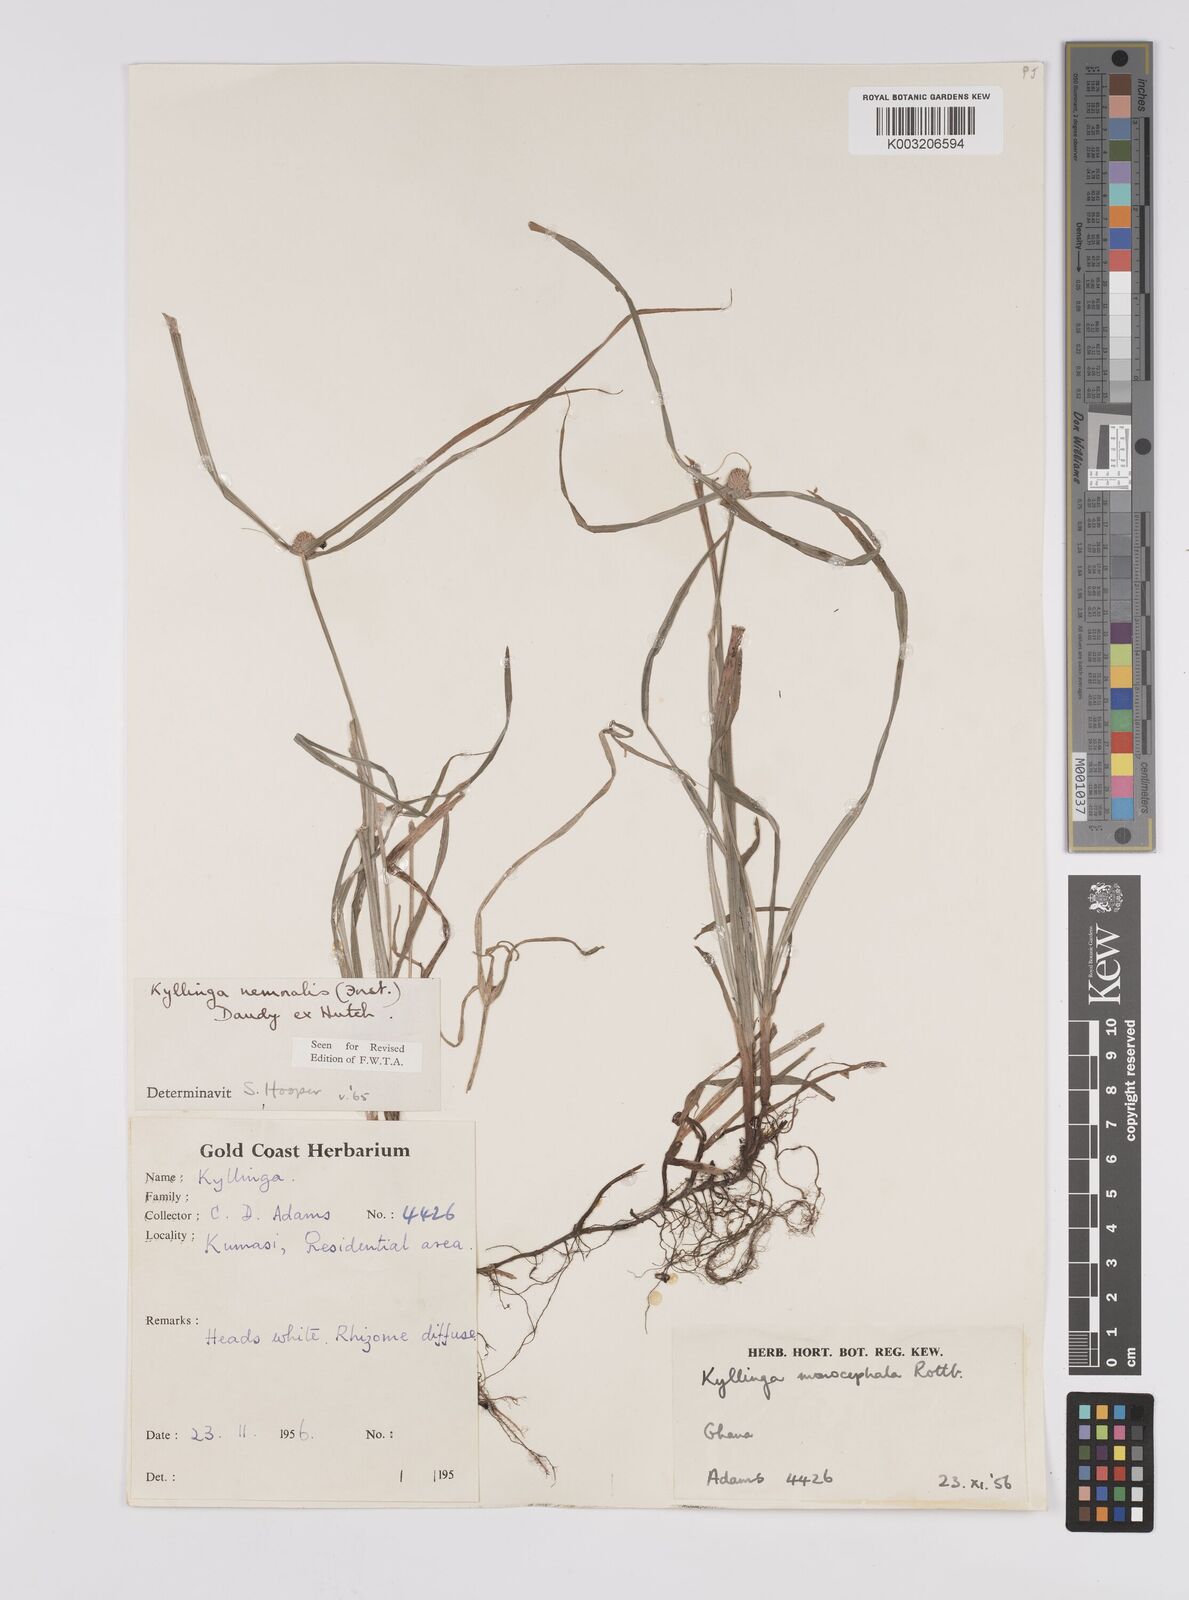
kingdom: Plantae
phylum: Tracheophyta
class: Liliopsida
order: Poales
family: Cyperaceae
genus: Cyperus
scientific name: Cyperus nemoralis
